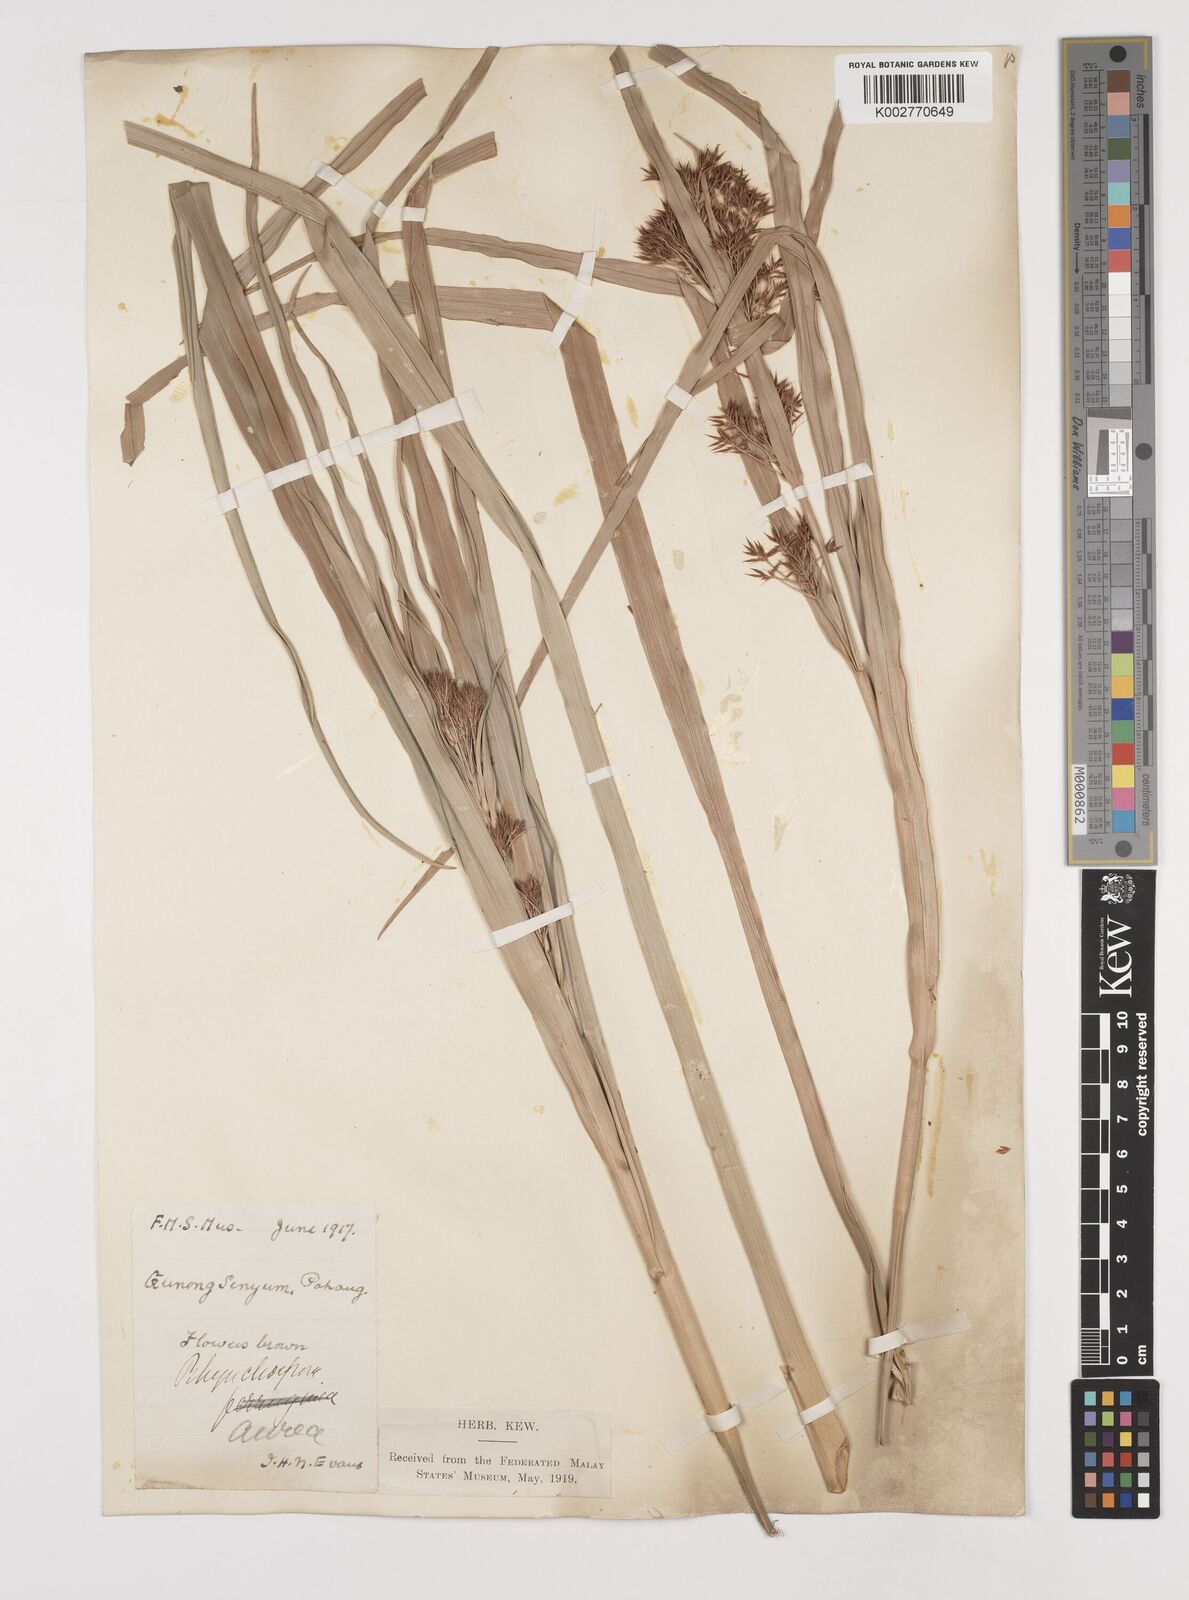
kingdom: Plantae
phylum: Tracheophyta
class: Liliopsida
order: Poales
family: Cyperaceae
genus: Rhynchospora
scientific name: Rhynchospora corymbosa
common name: Golden beak sedge
